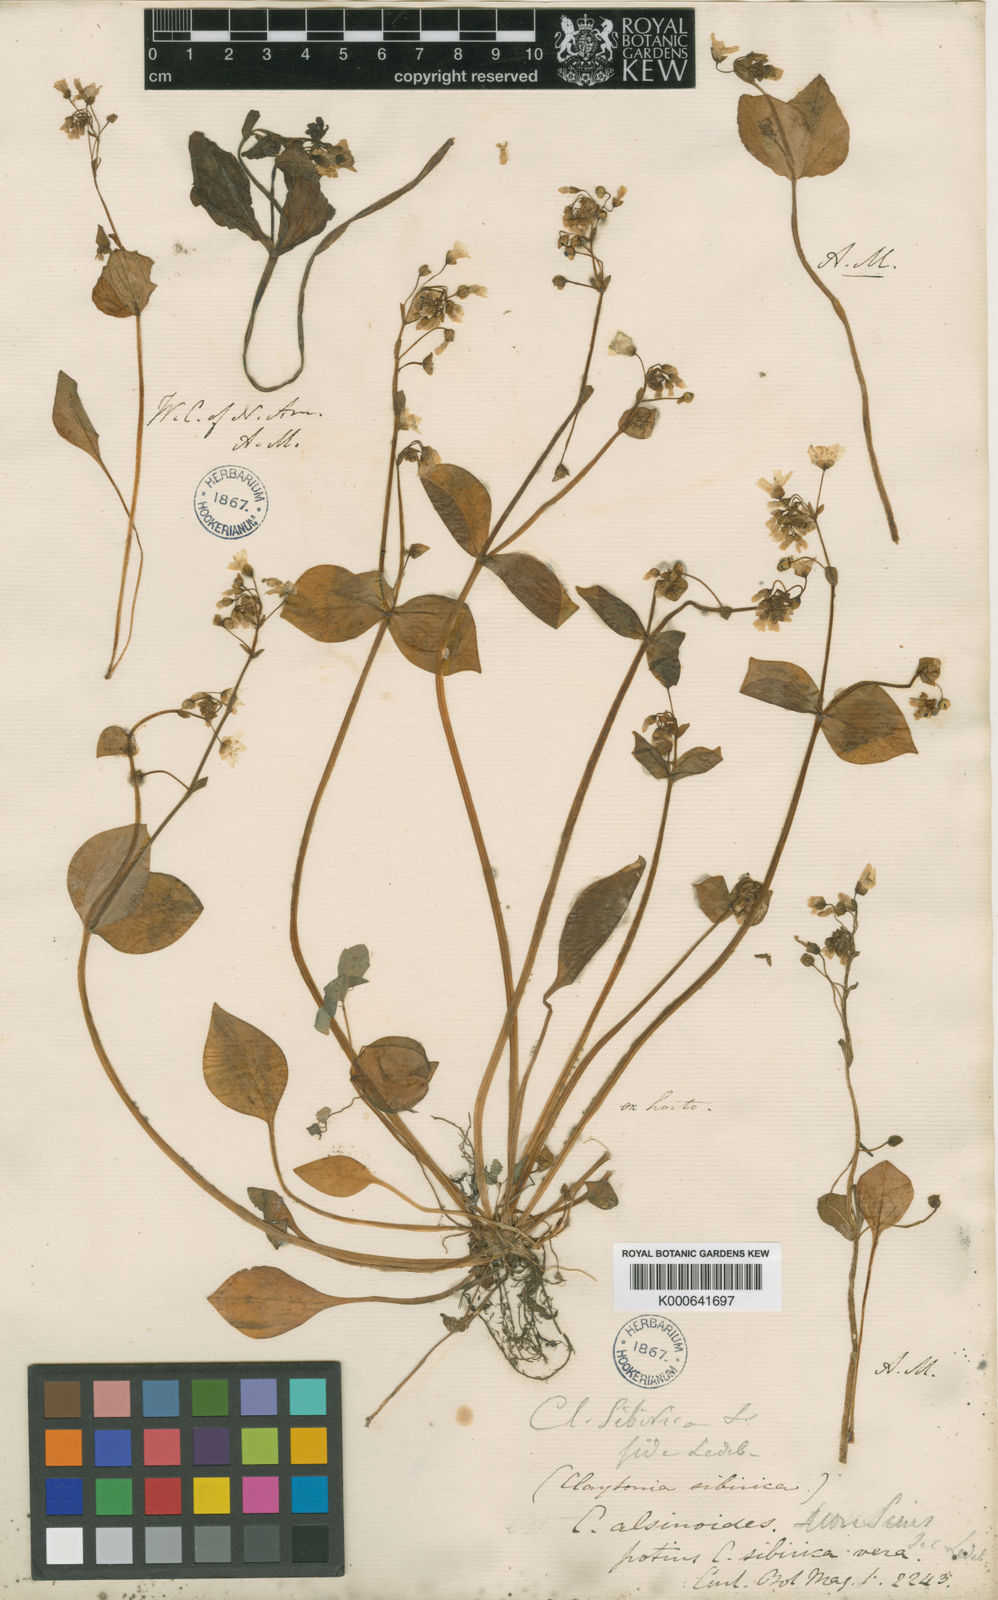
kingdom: Plantae
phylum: Tracheophyta
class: Magnoliopsida
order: Caryophyllales
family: Montiaceae
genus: Claytonia
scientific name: Claytonia sibirica
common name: Pink purslane
